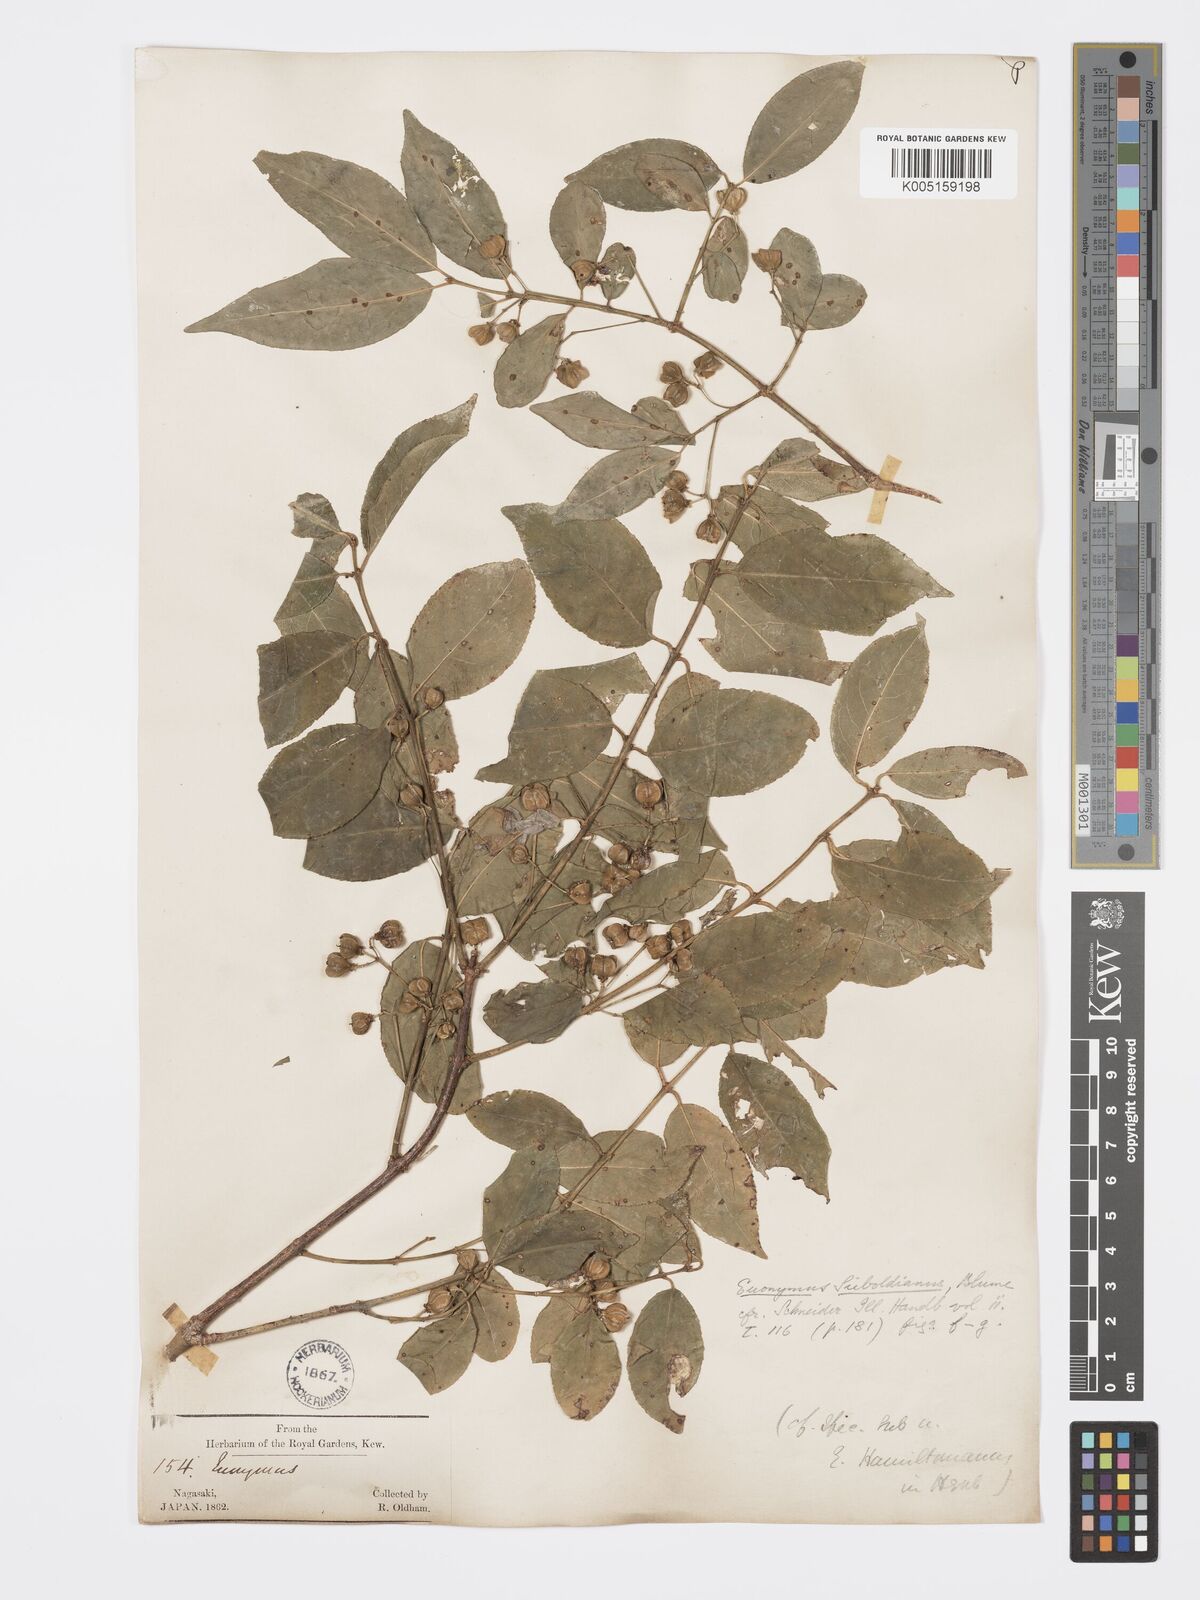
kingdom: Plantae
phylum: Tracheophyta
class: Magnoliopsida
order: Celastrales
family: Celastraceae
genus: Euonymus
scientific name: Euonymus hamiltonianus
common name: Hamilton's spindletree
